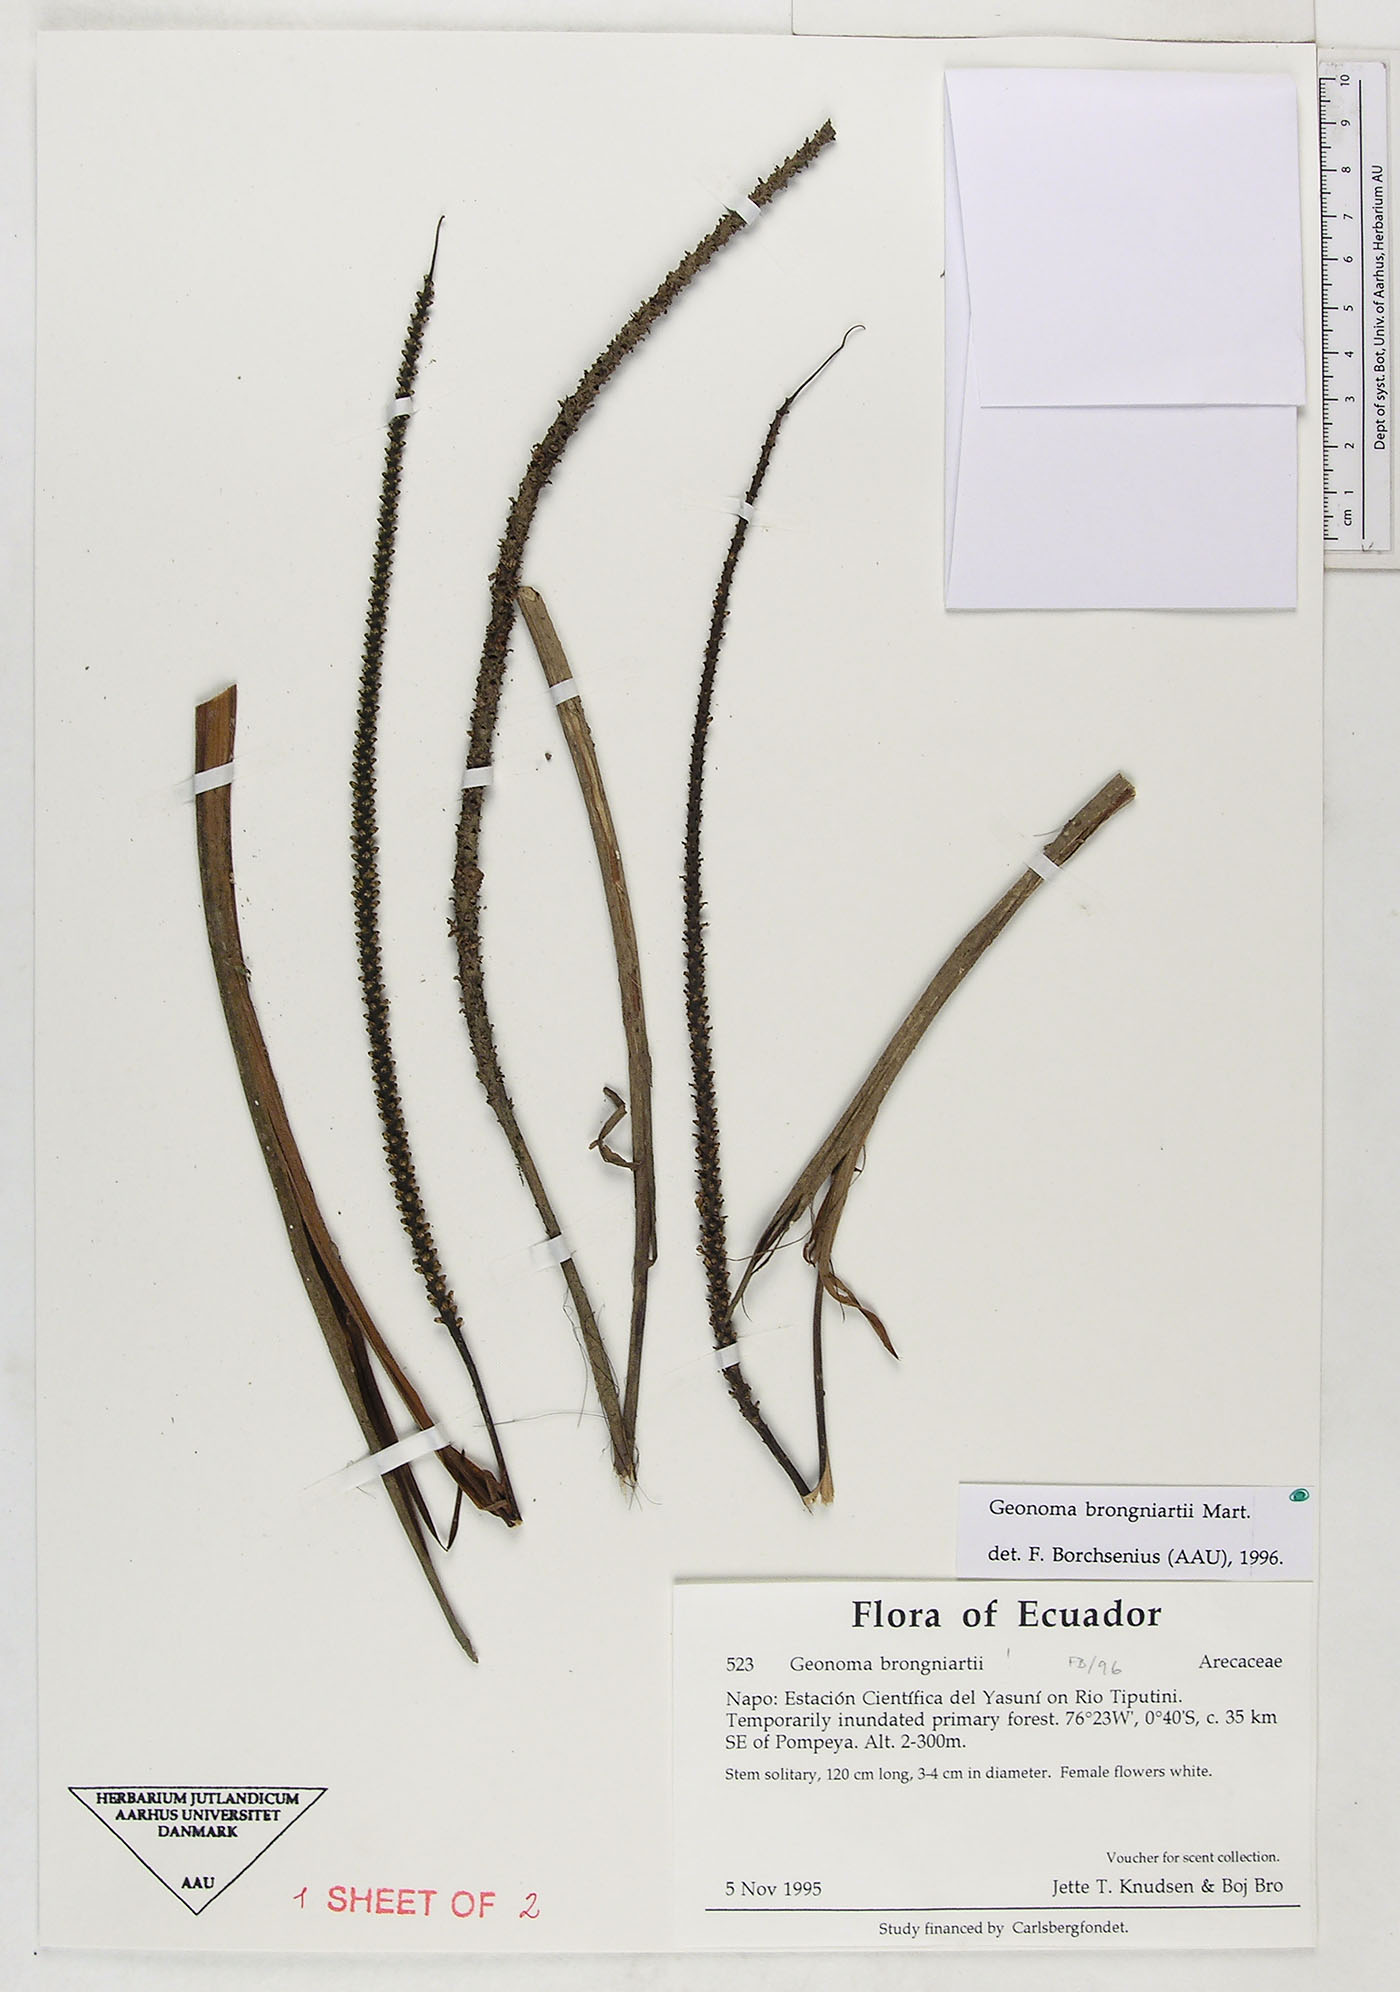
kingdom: Plantae
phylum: Tracheophyta
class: Liliopsida
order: Arecales
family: Arecaceae
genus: Geonoma
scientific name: Geonoma brongniartii
